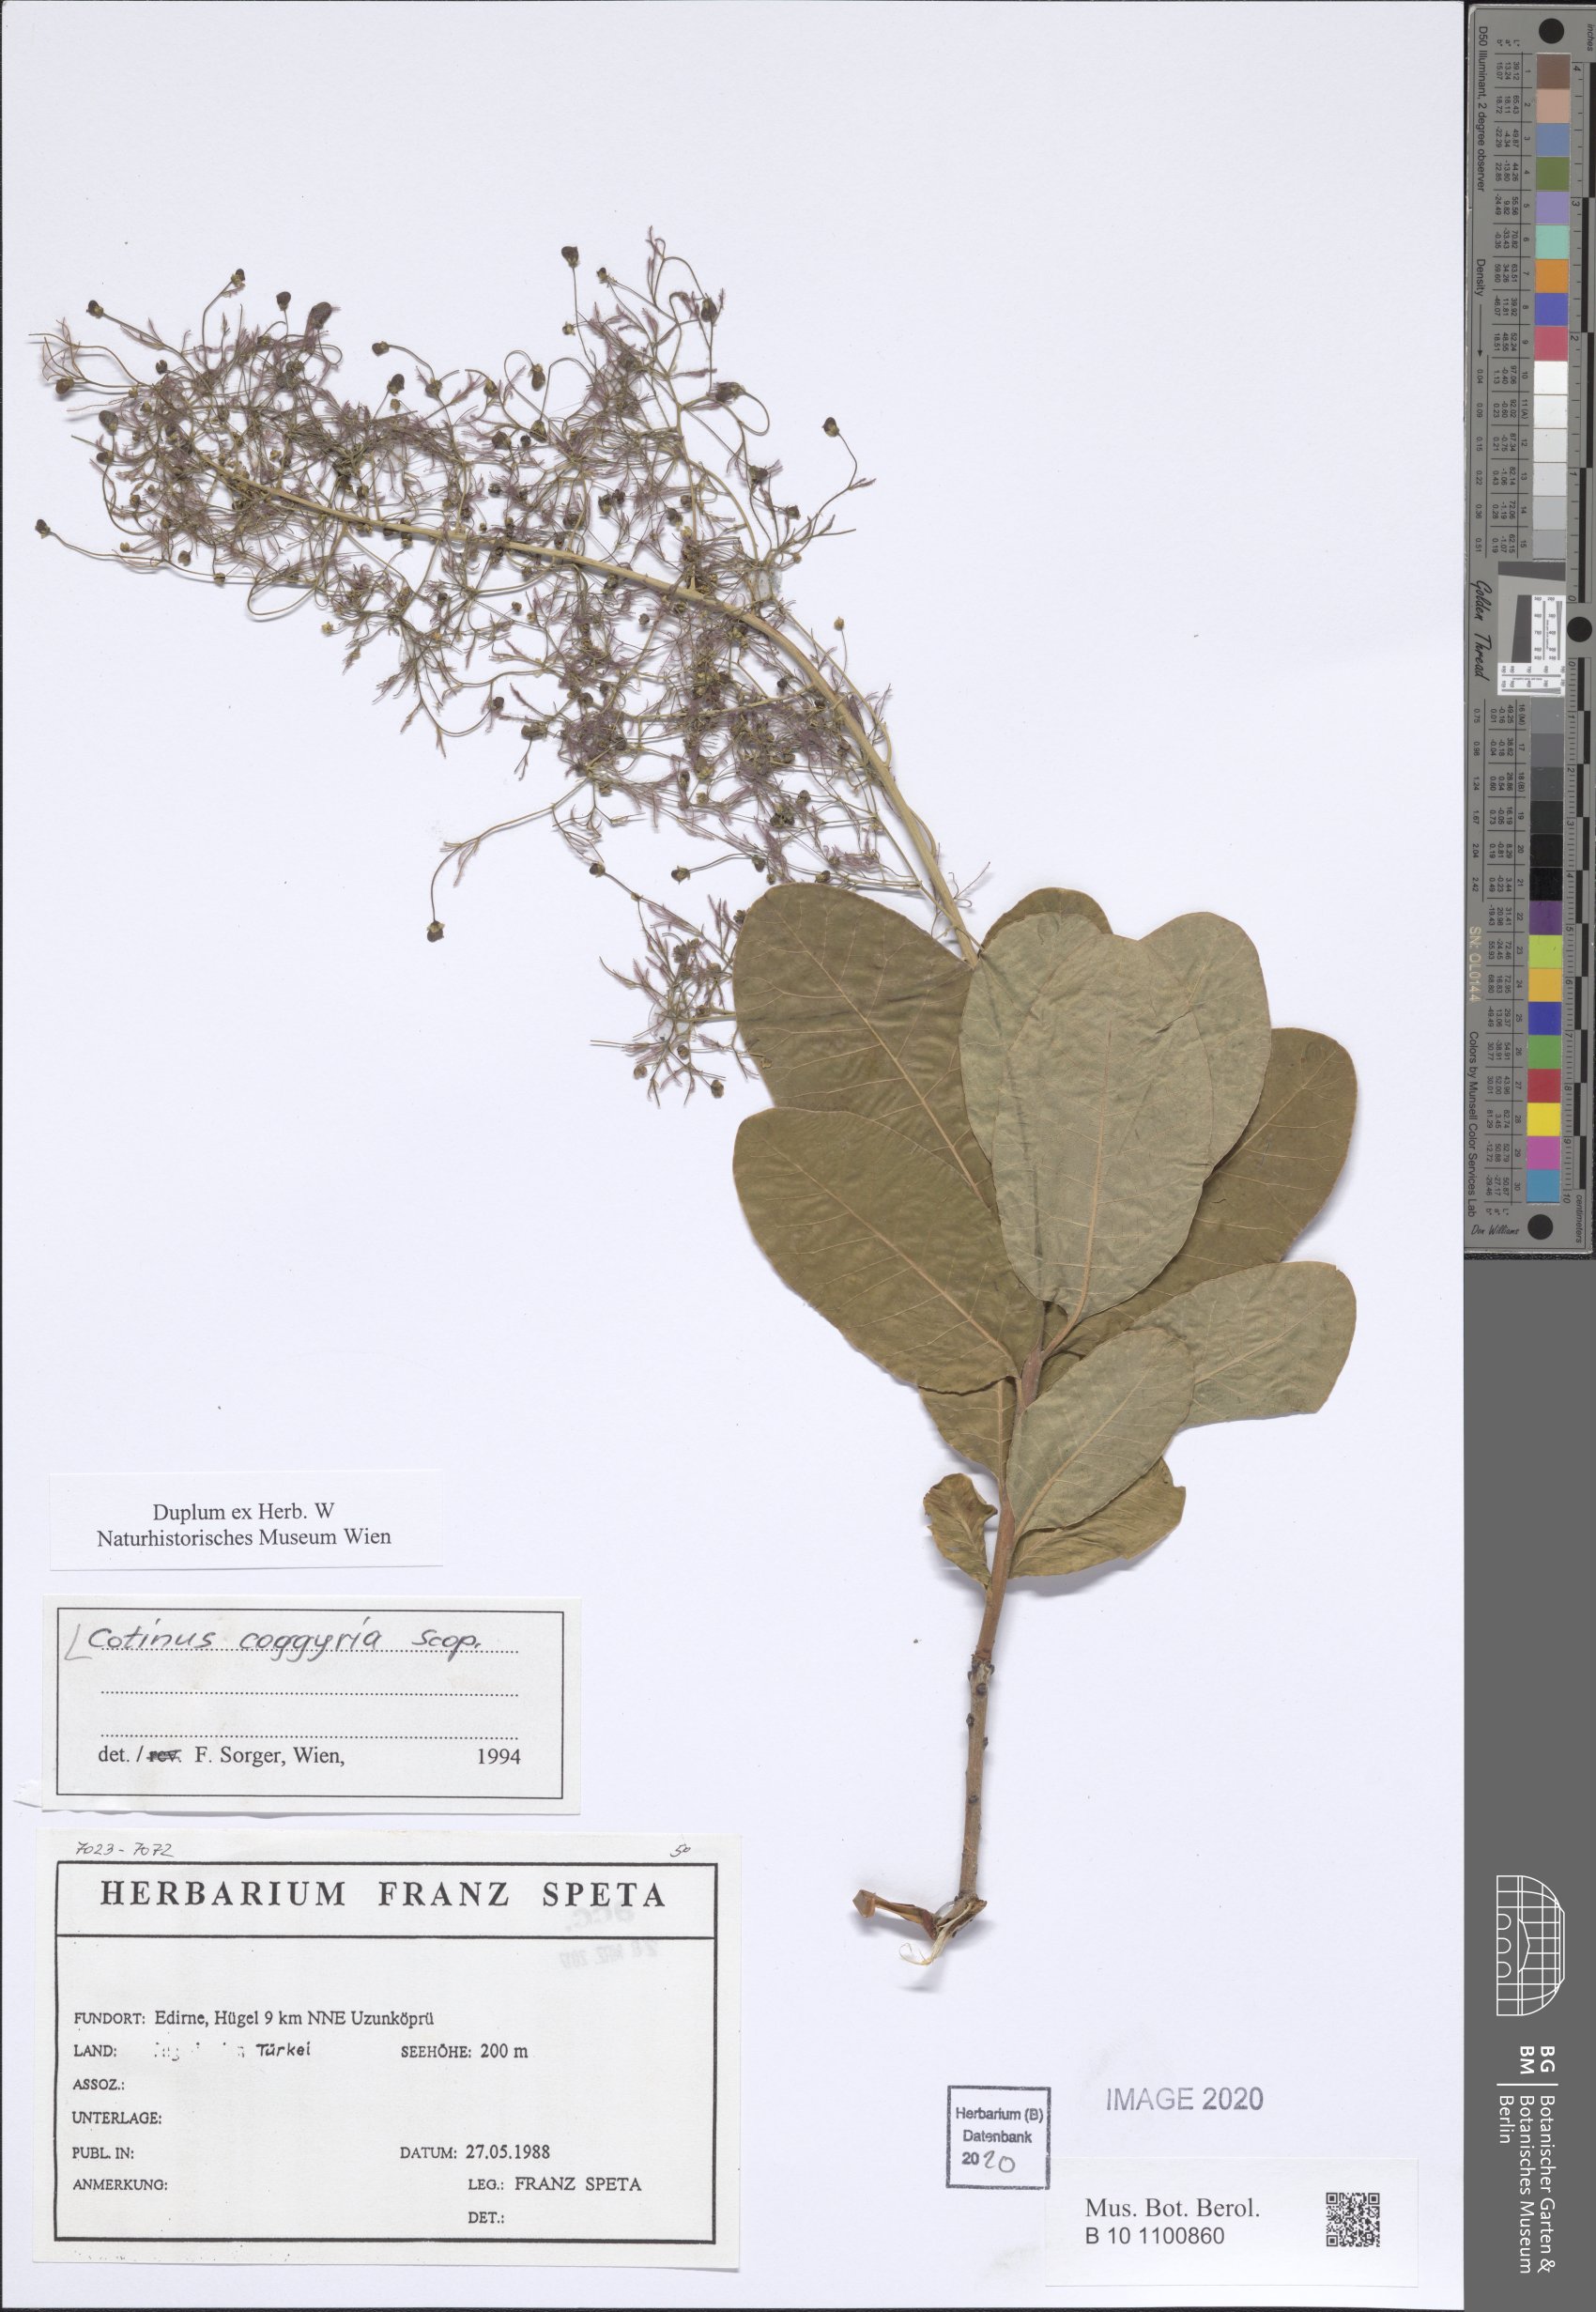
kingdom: Plantae
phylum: Tracheophyta
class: Magnoliopsida
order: Sapindales
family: Anacardiaceae
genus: Cotinus
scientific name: Cotinus coggygria
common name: Smoke-tree
